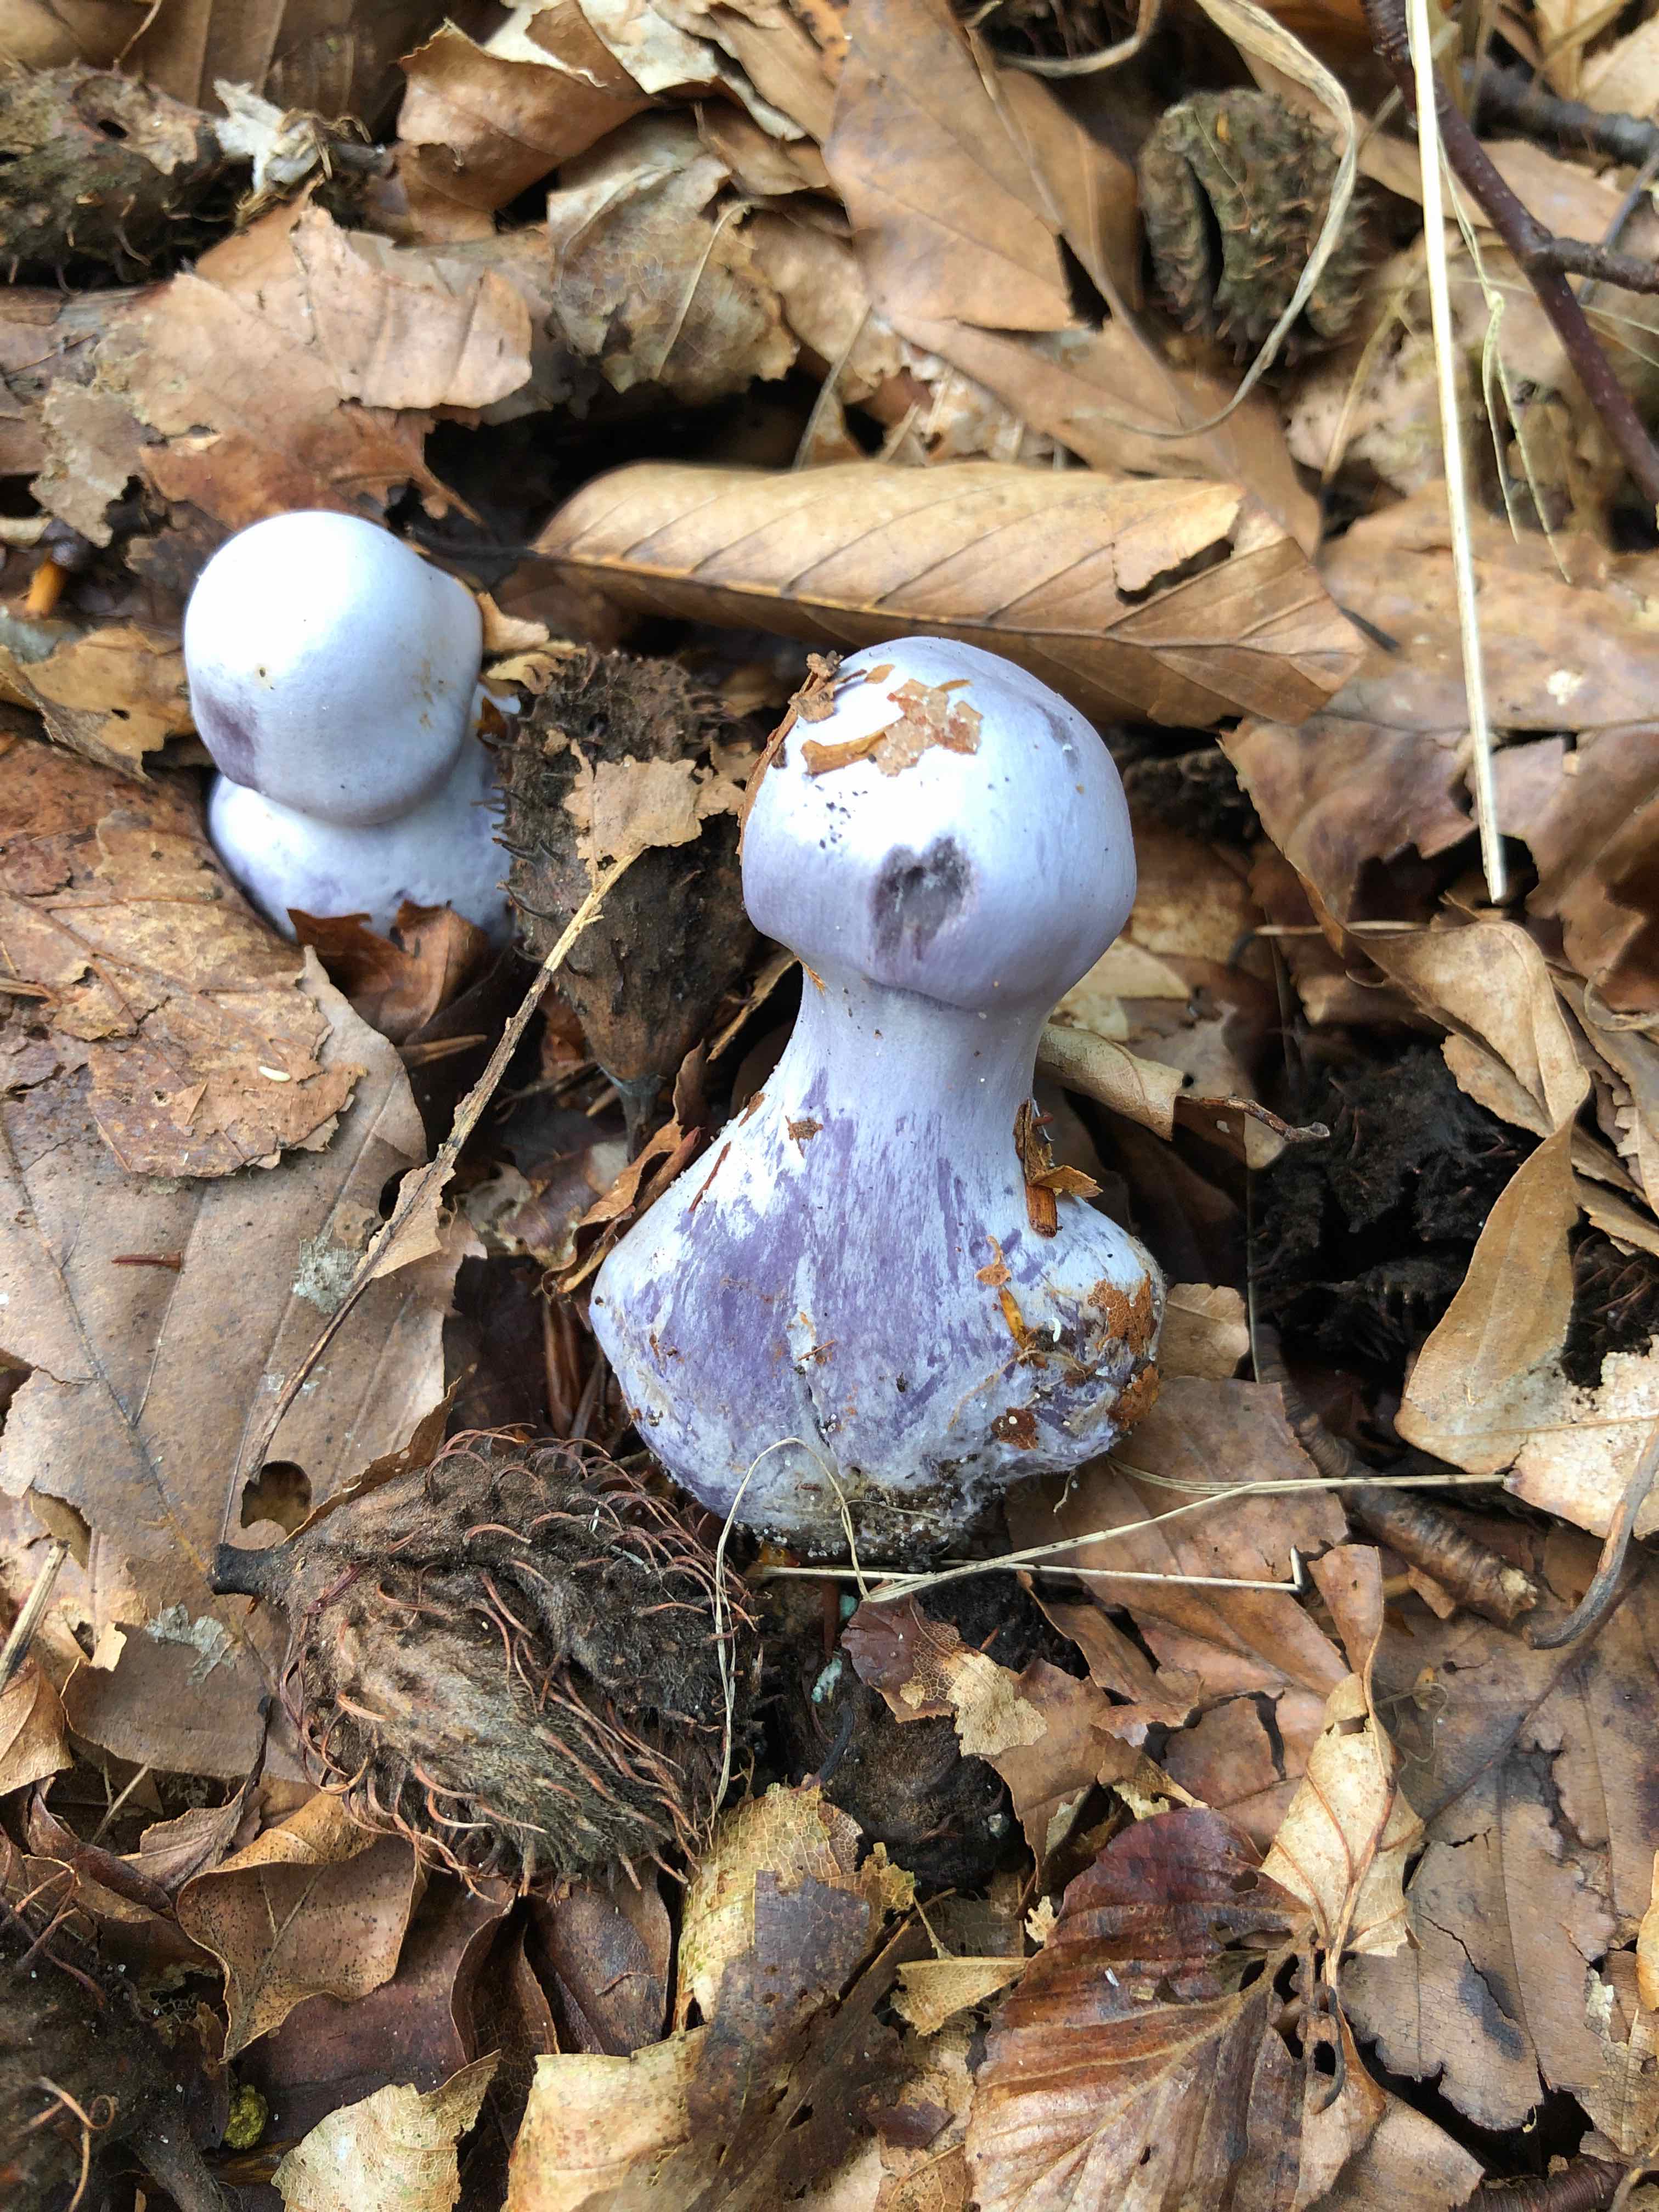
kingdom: Fungi
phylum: Basidiomycota
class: Agaricomycetes
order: Agaricales
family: Cortinariaceae
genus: Cortinarius
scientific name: Cortinarius alboviolaceus
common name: lysviolet slørhat
